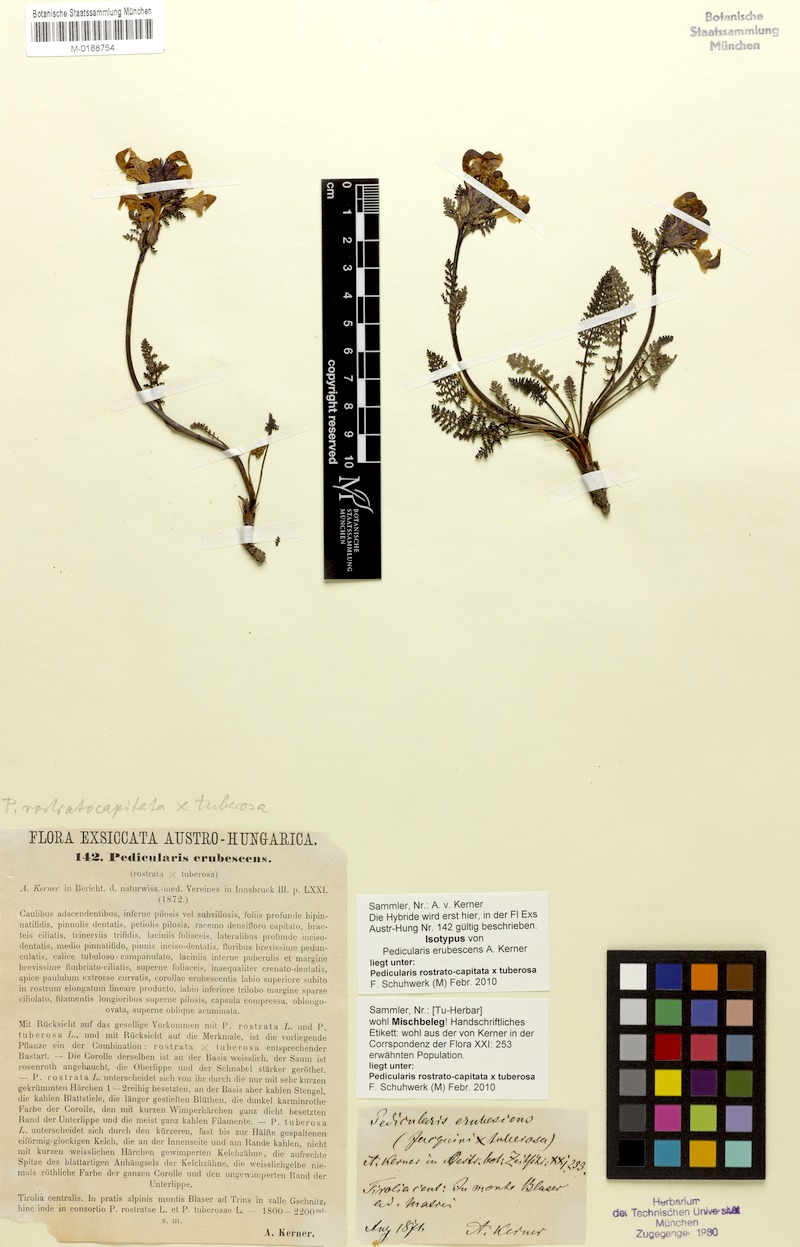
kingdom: Plantae
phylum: Tracheophyta
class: Magnoliopsida
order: Lamiales
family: Orobanchaceae
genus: Pedicularis
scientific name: Pedicularis rostratocapitata
